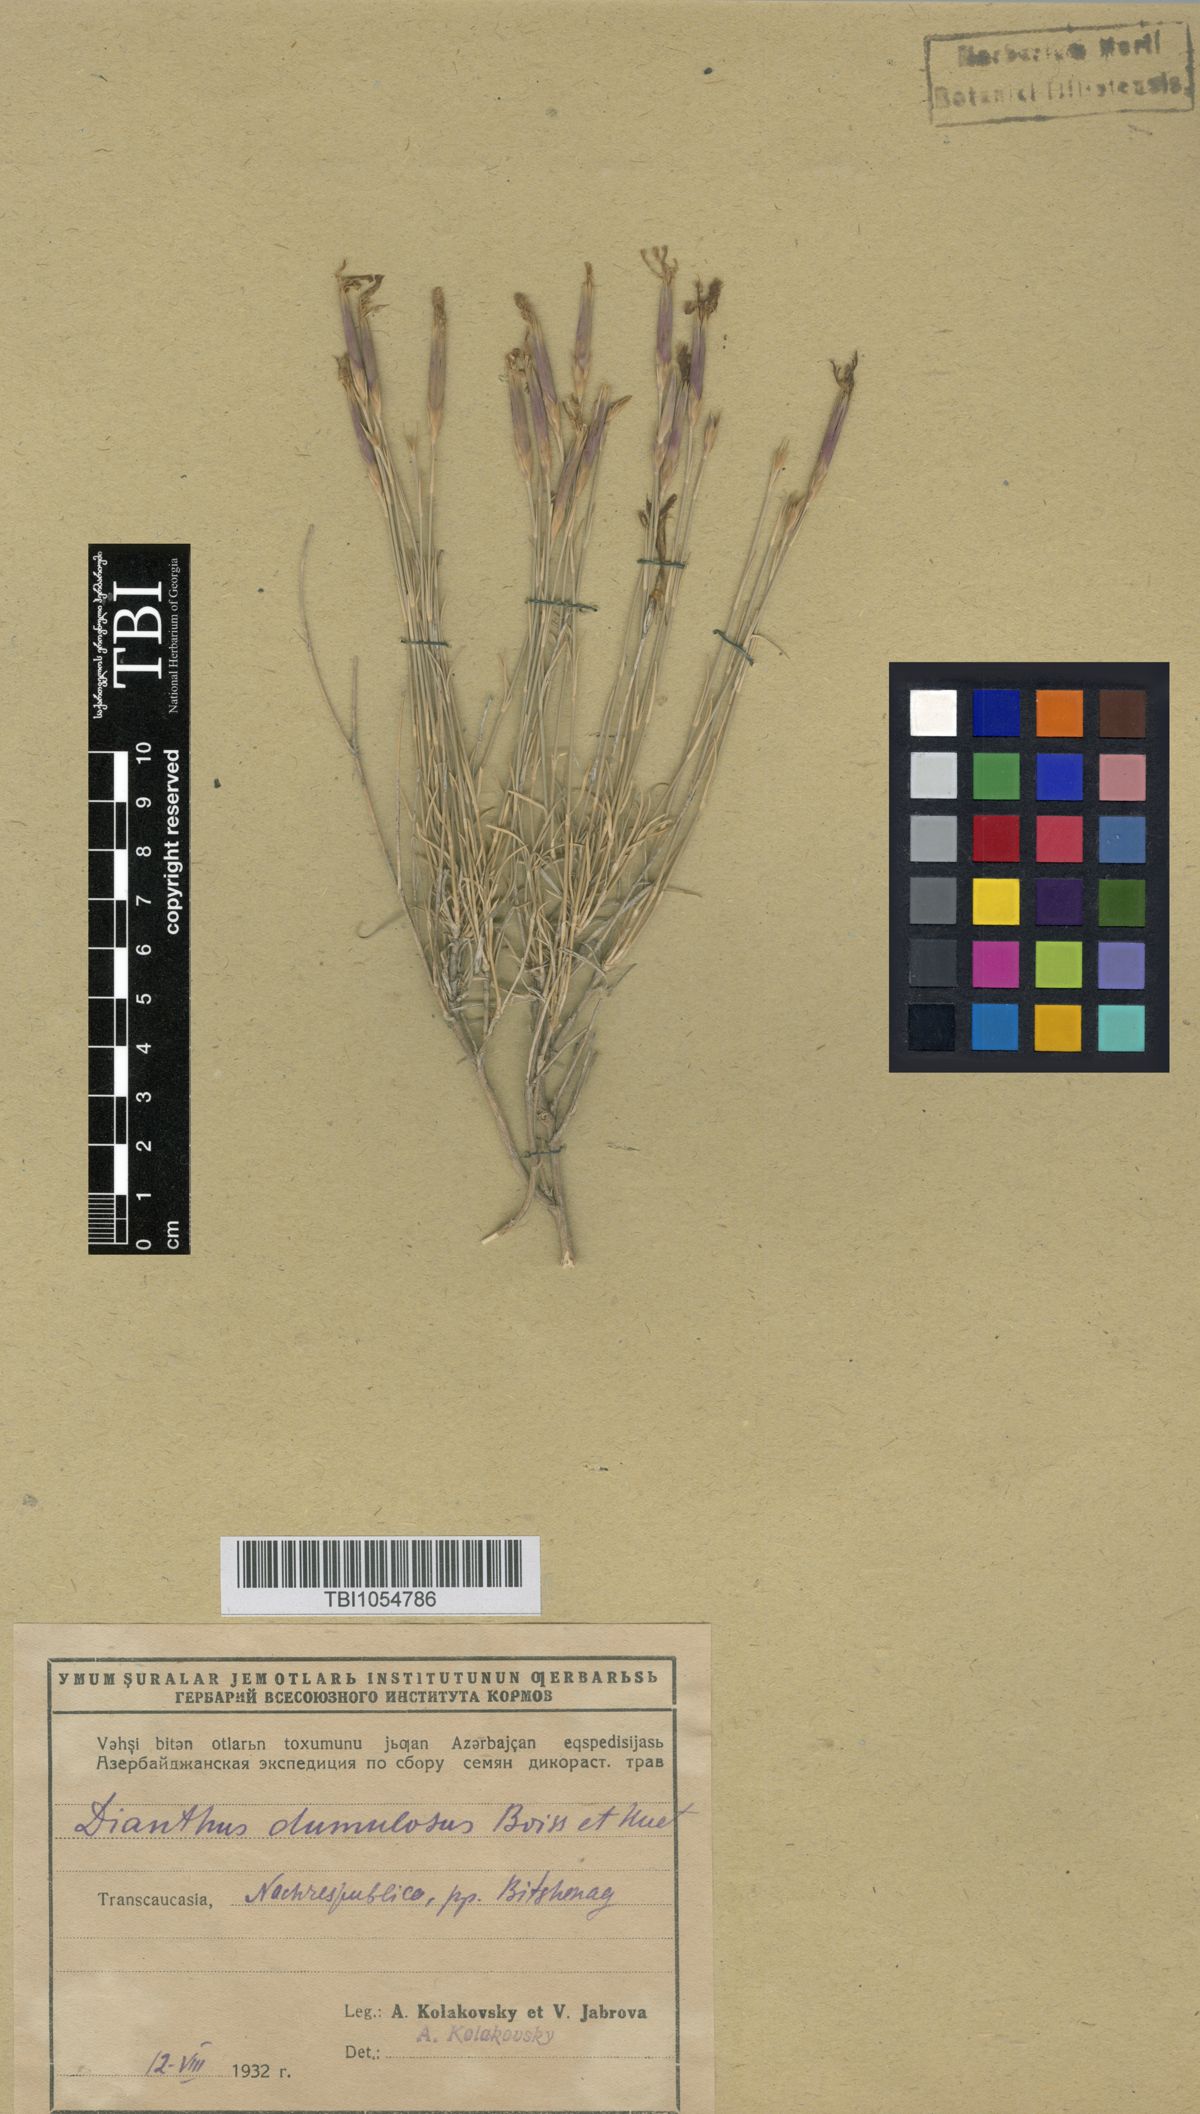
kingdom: Plantae
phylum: Tracheophyta
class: Magnoliopsida
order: Caryophyllales
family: Caryophyllaceae
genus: Dianthus
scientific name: Dianthus
